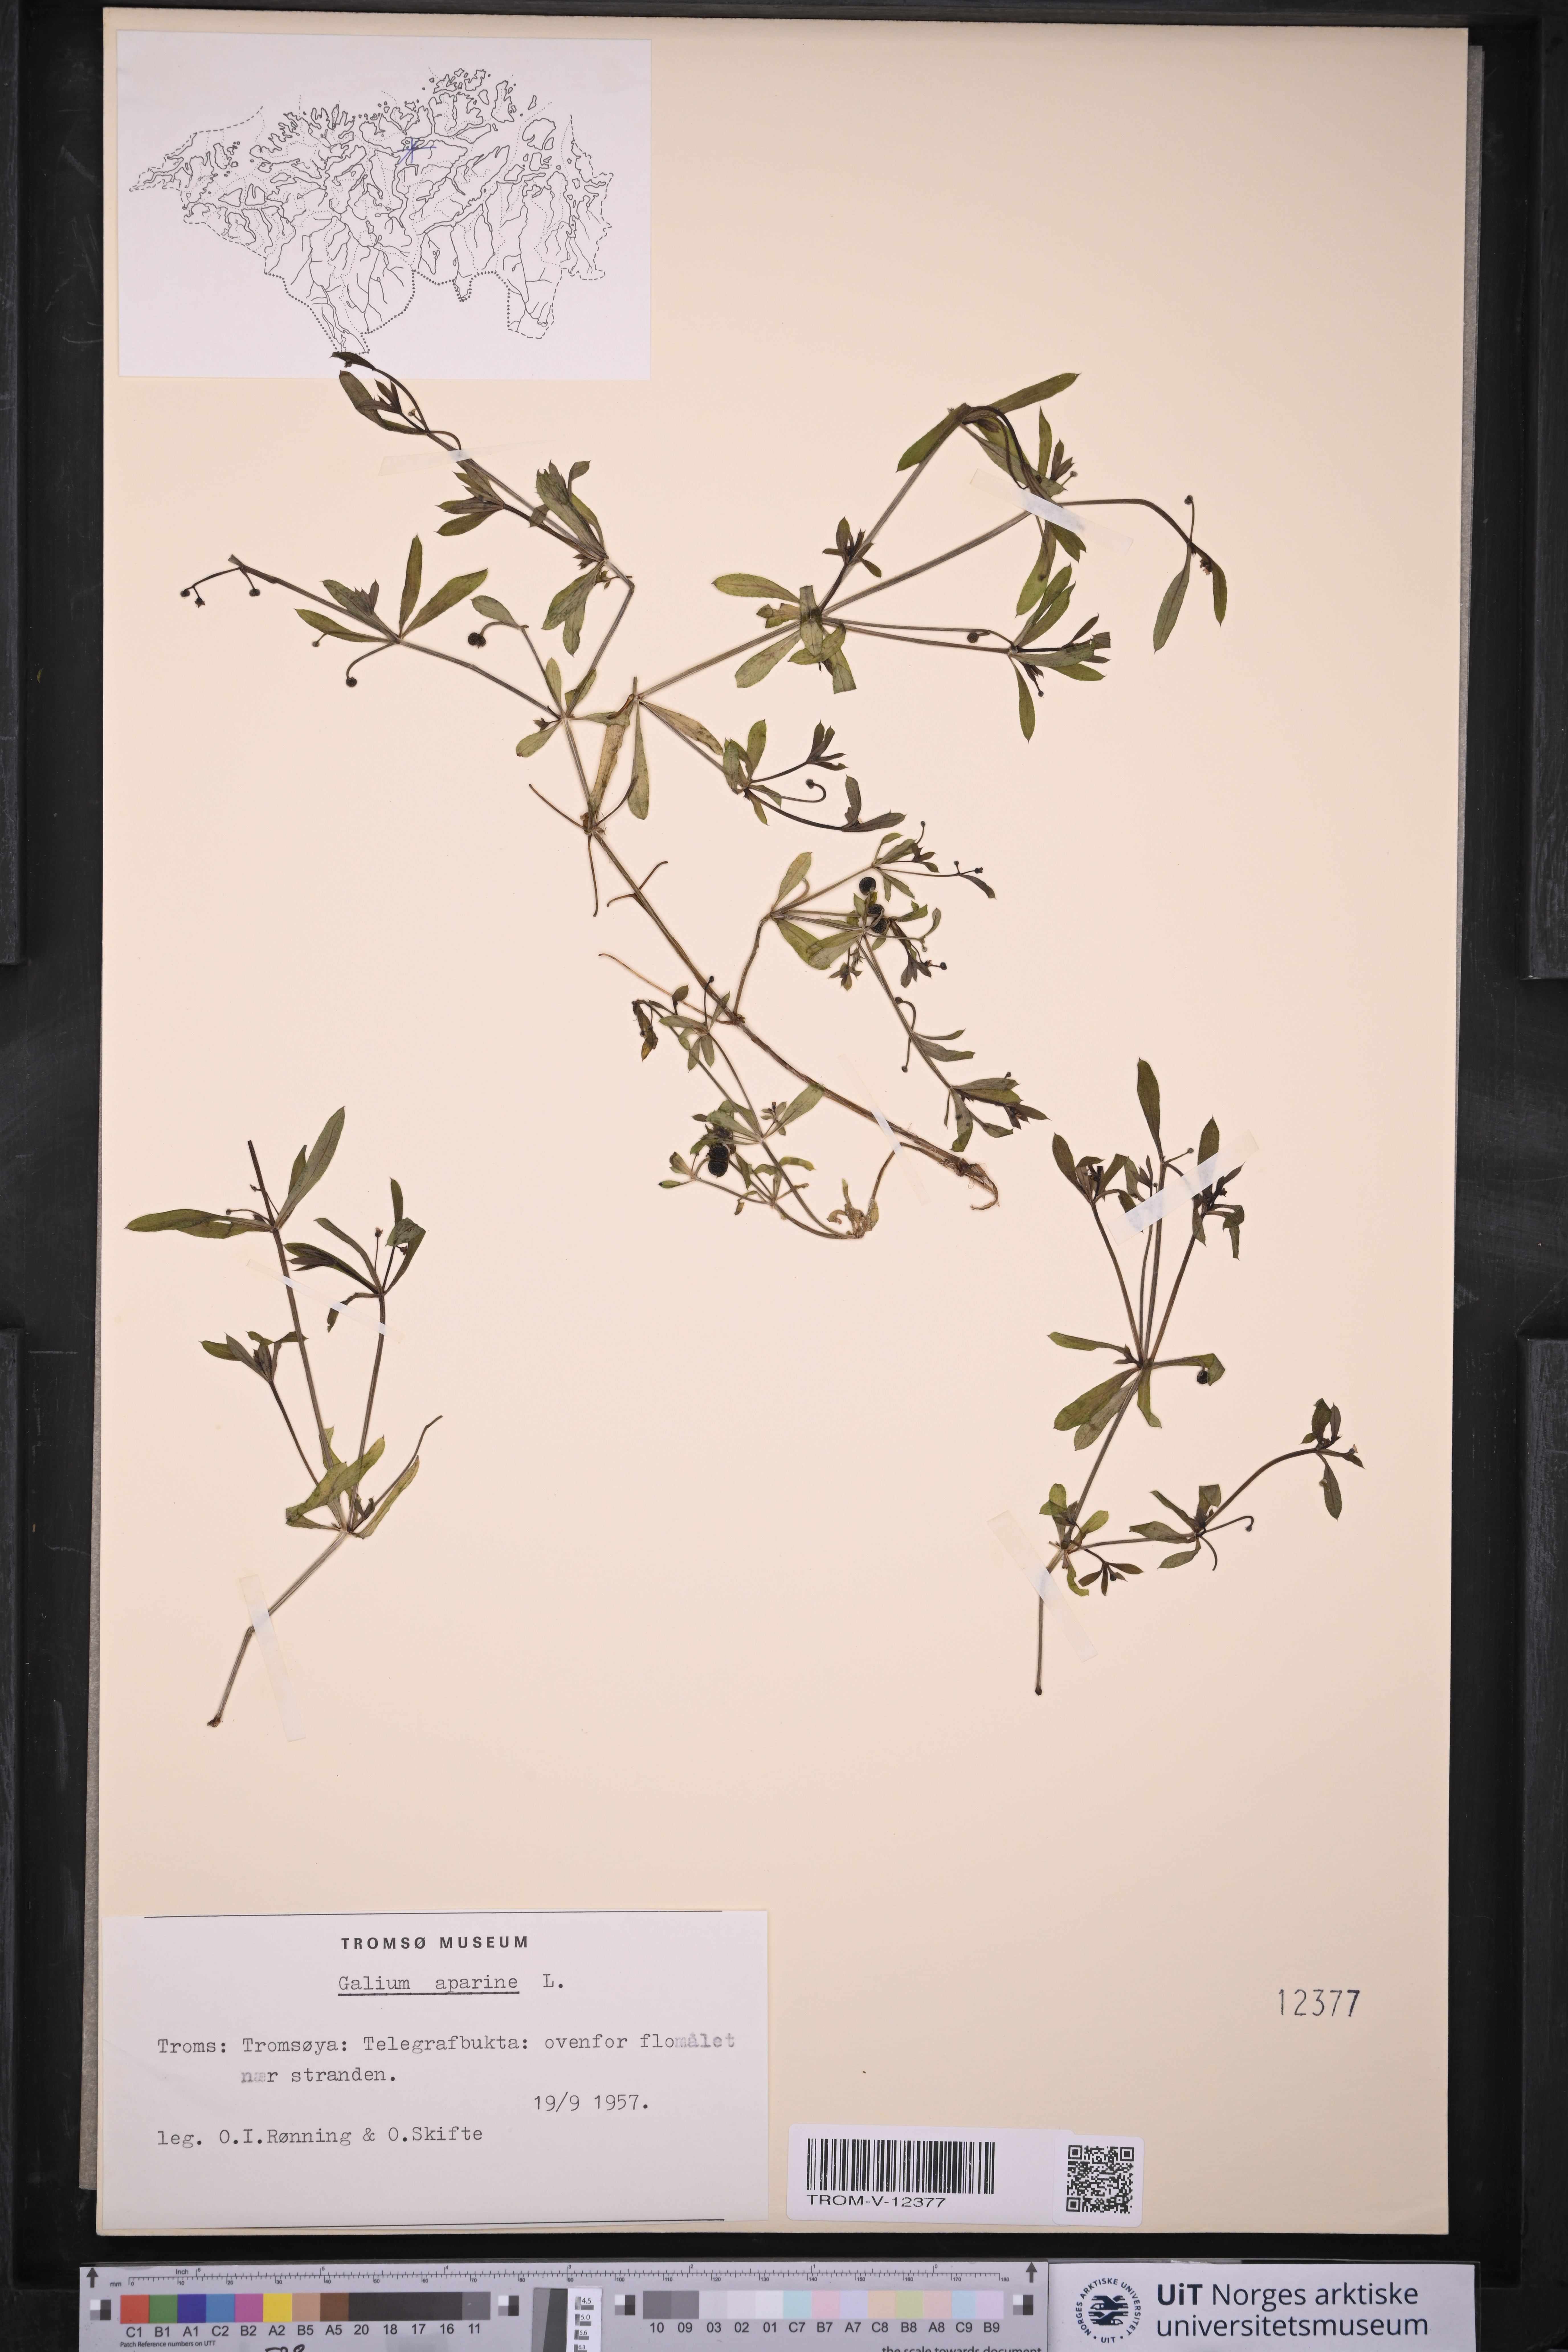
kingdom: Plantae
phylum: Tracheophyta
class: Magnoliopsida
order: Gentianales
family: Rubiaceae
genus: Galium
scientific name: Galium aparine
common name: Cleavers
